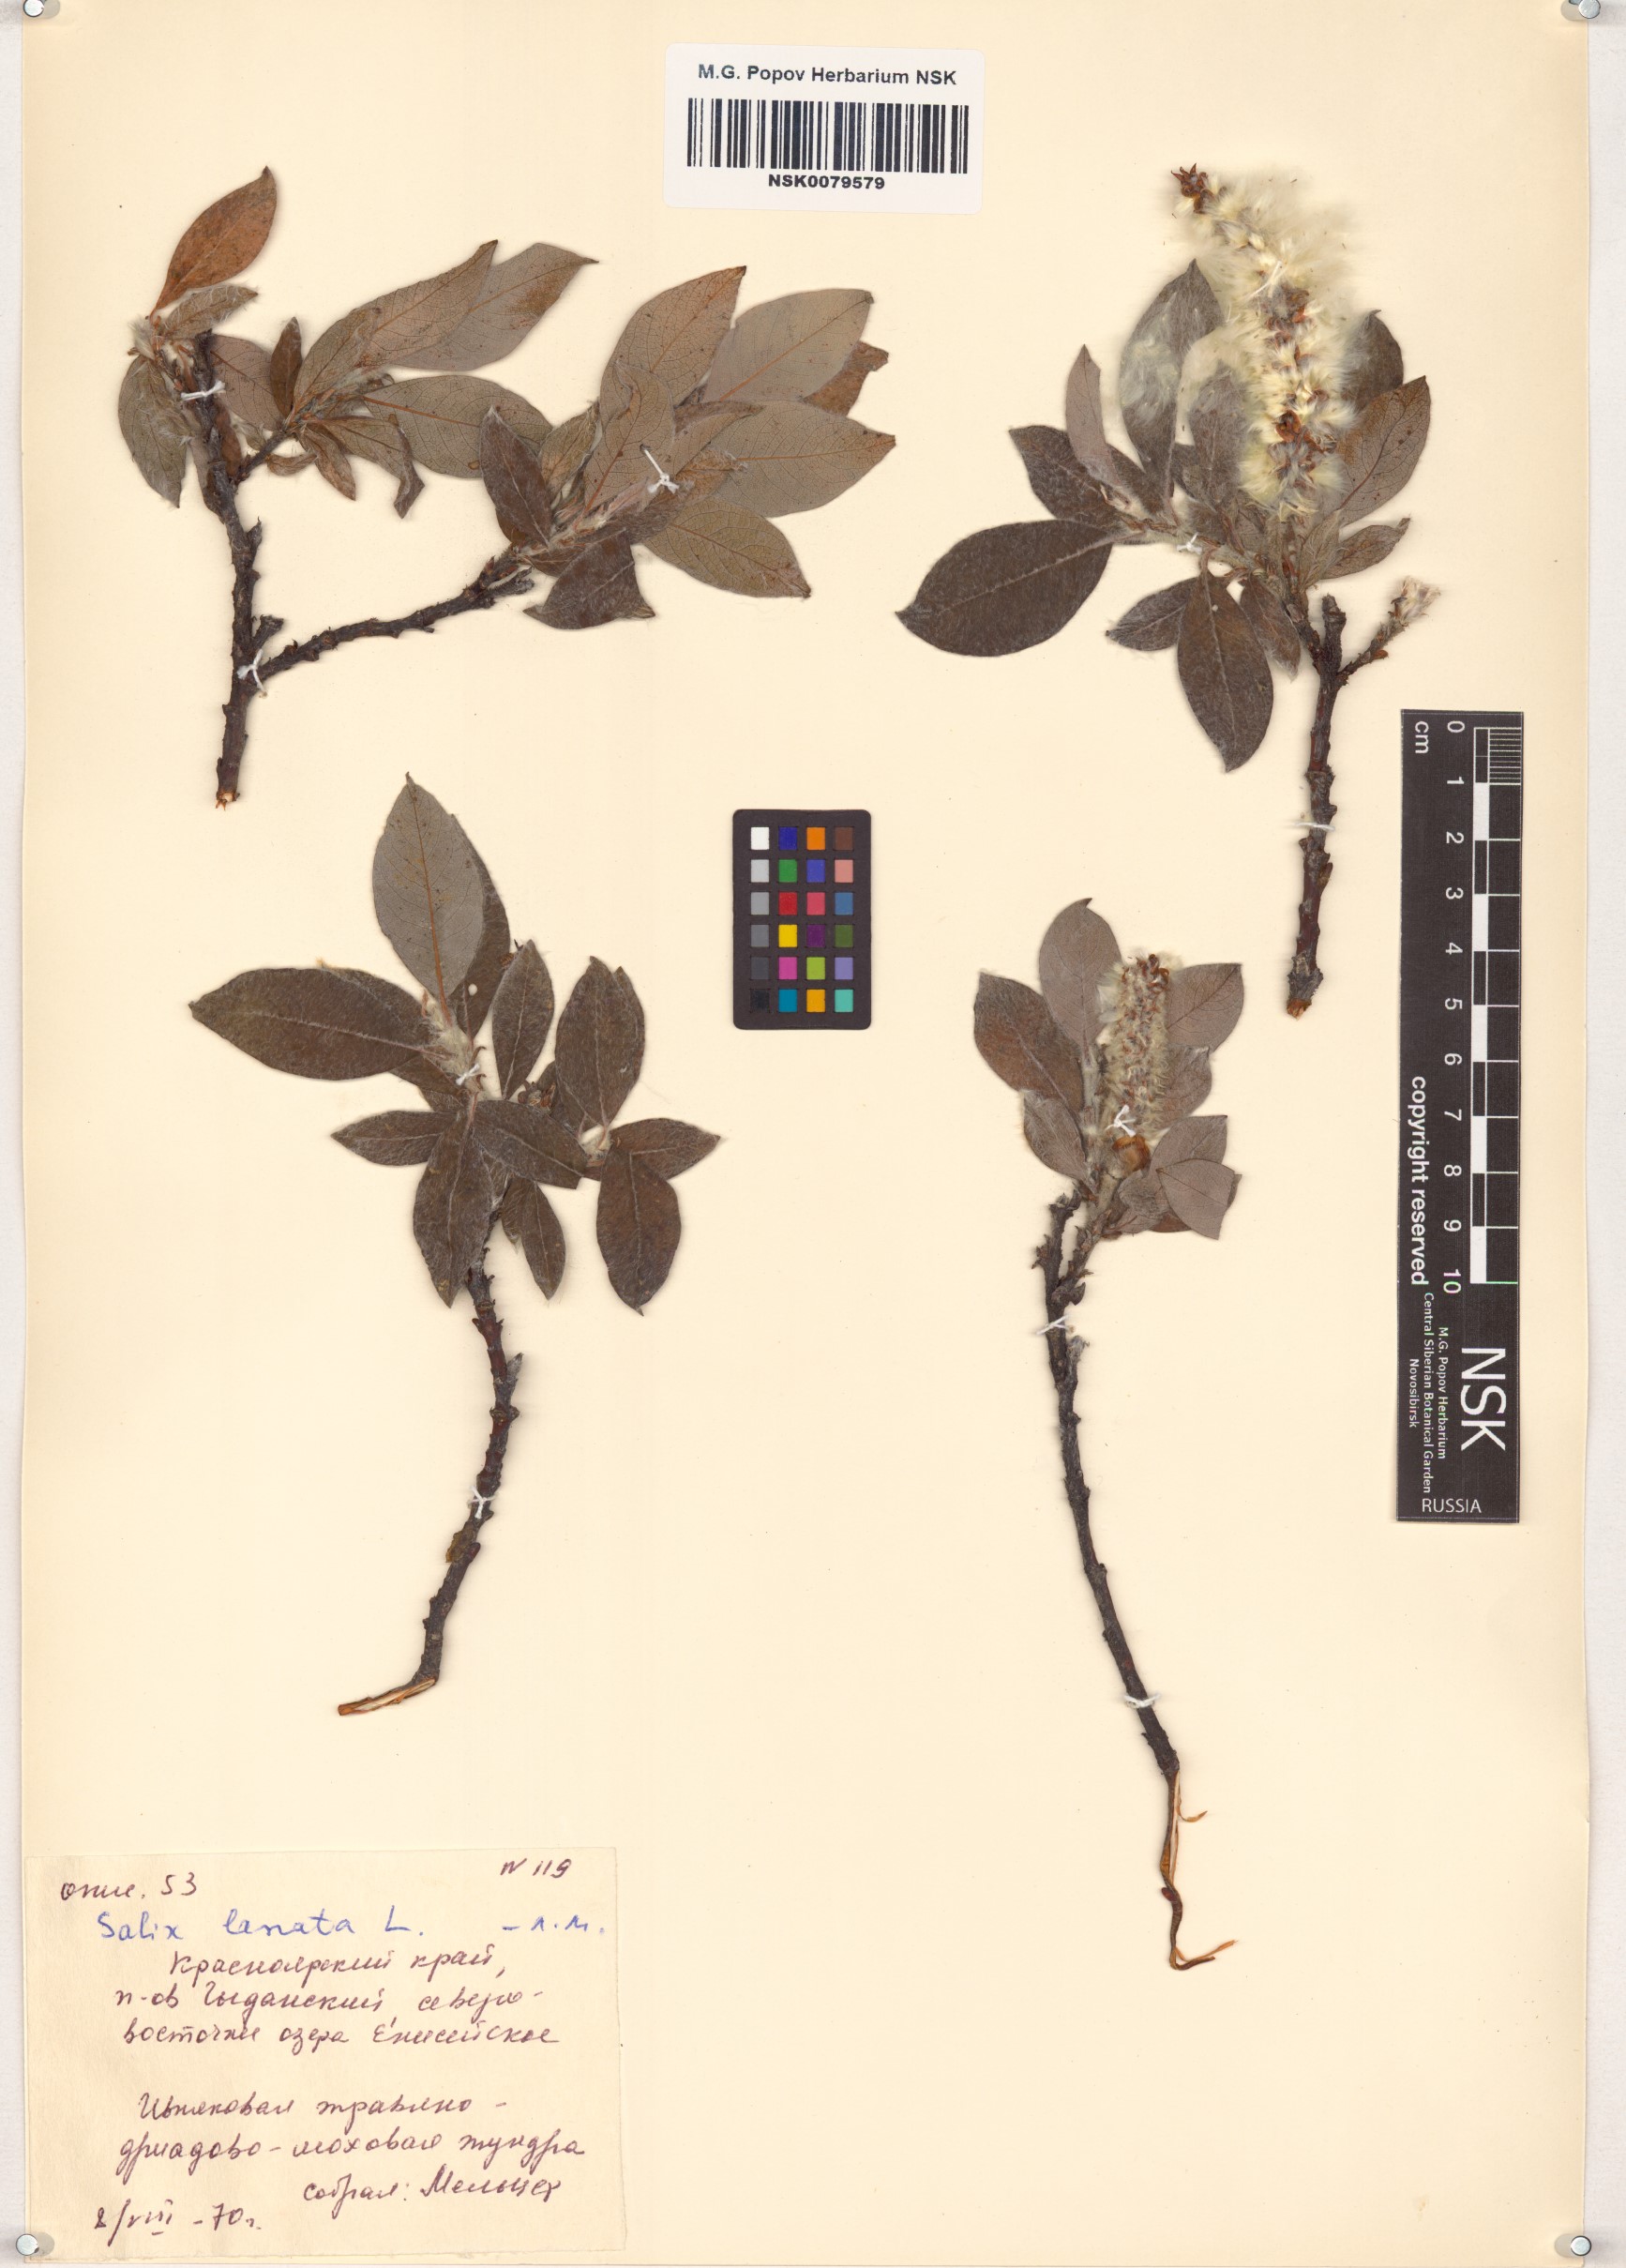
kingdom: Plantae
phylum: Tracheophyta
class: Magnoliopsida
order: Malpighiales
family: Salicaceae
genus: Salix
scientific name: Salix lanata
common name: Woolly willow
